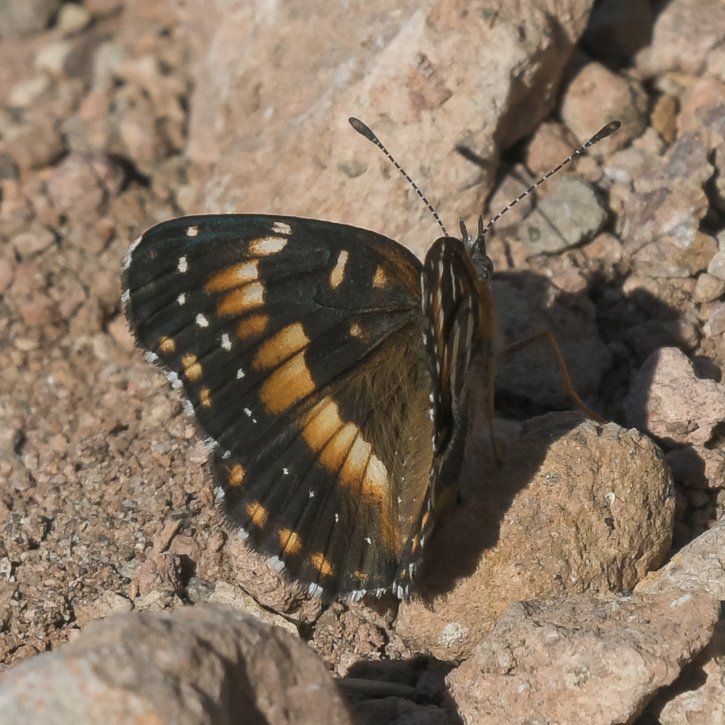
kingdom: Animalia
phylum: Arthropoda
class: Insecta
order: Lepidoptera
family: Nymphalidae
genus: Chlosyne
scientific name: Chlosyne californica
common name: California Patch
